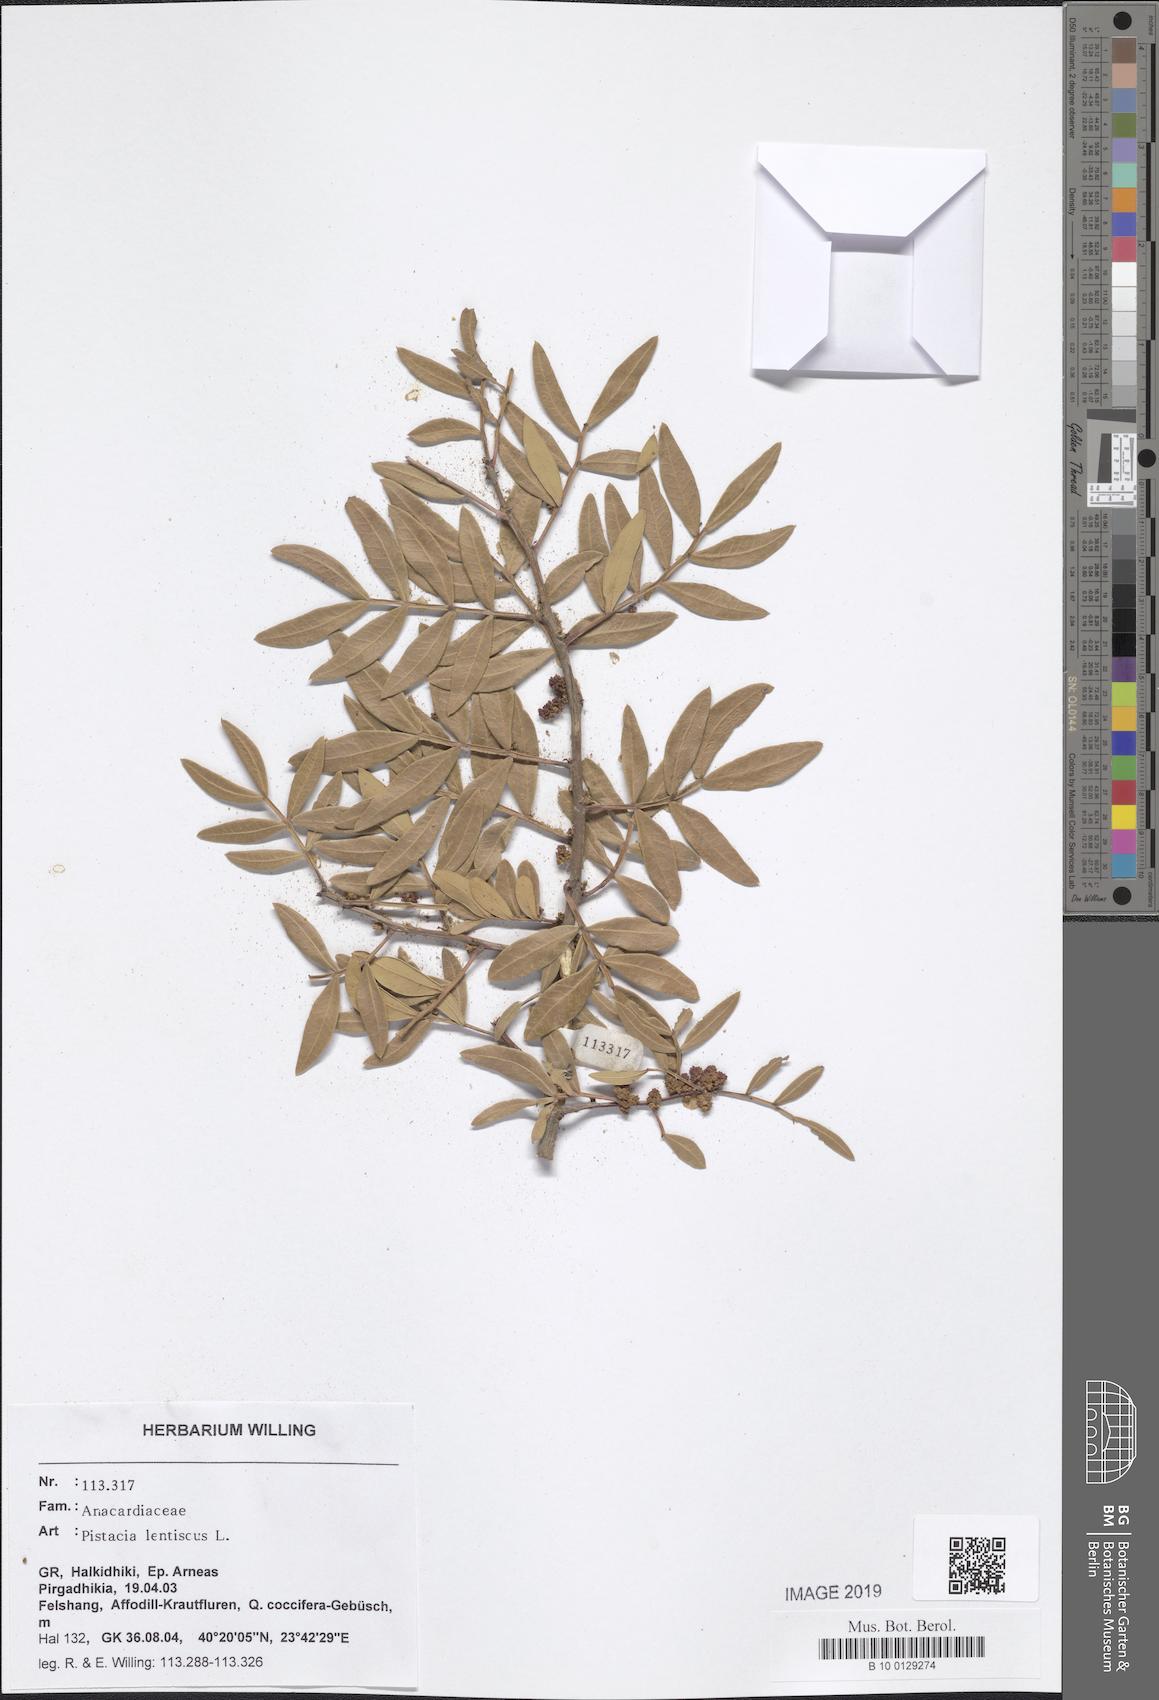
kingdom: Plantae
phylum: Tracheophyta
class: Magnoliopsida
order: Sapindales
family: Anacardiaceae
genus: Pistacia
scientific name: Pistacia lentiscus
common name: Lentisk
